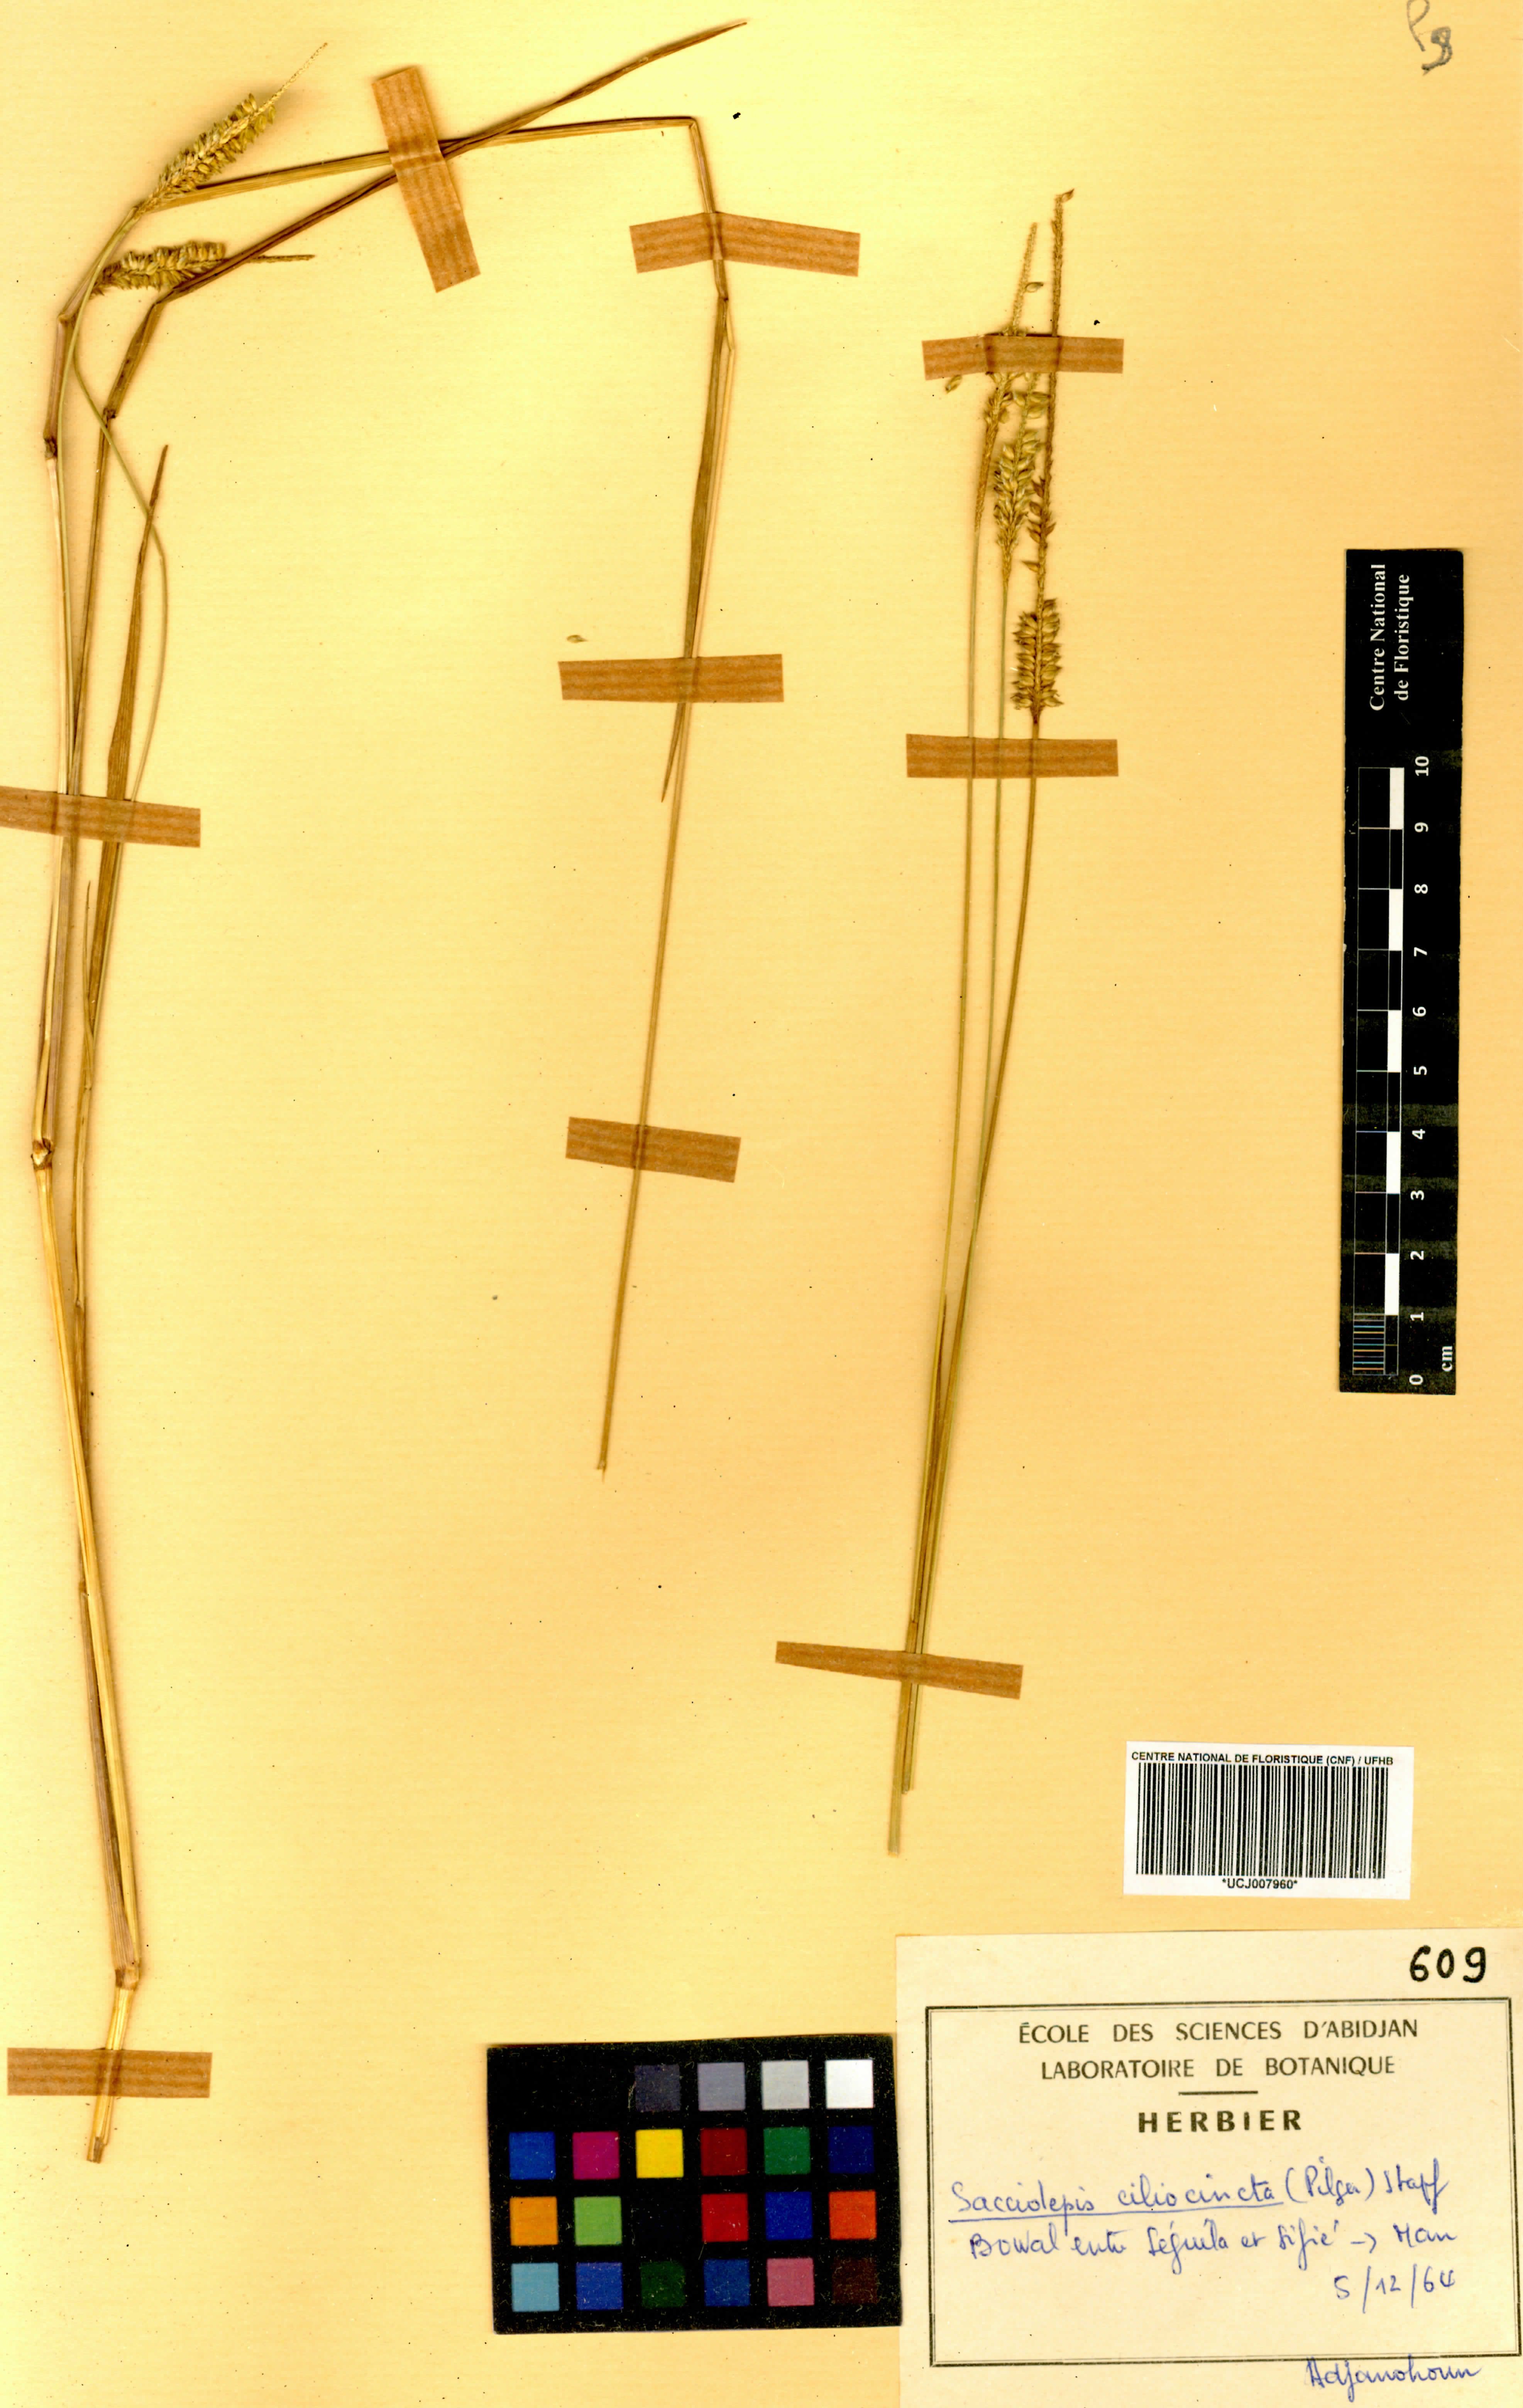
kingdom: Plantae
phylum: Tracheophyta
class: Liliopsida
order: Poales
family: Poaceae
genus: Sacciolepis
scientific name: Sacciolepis ciliocincta
